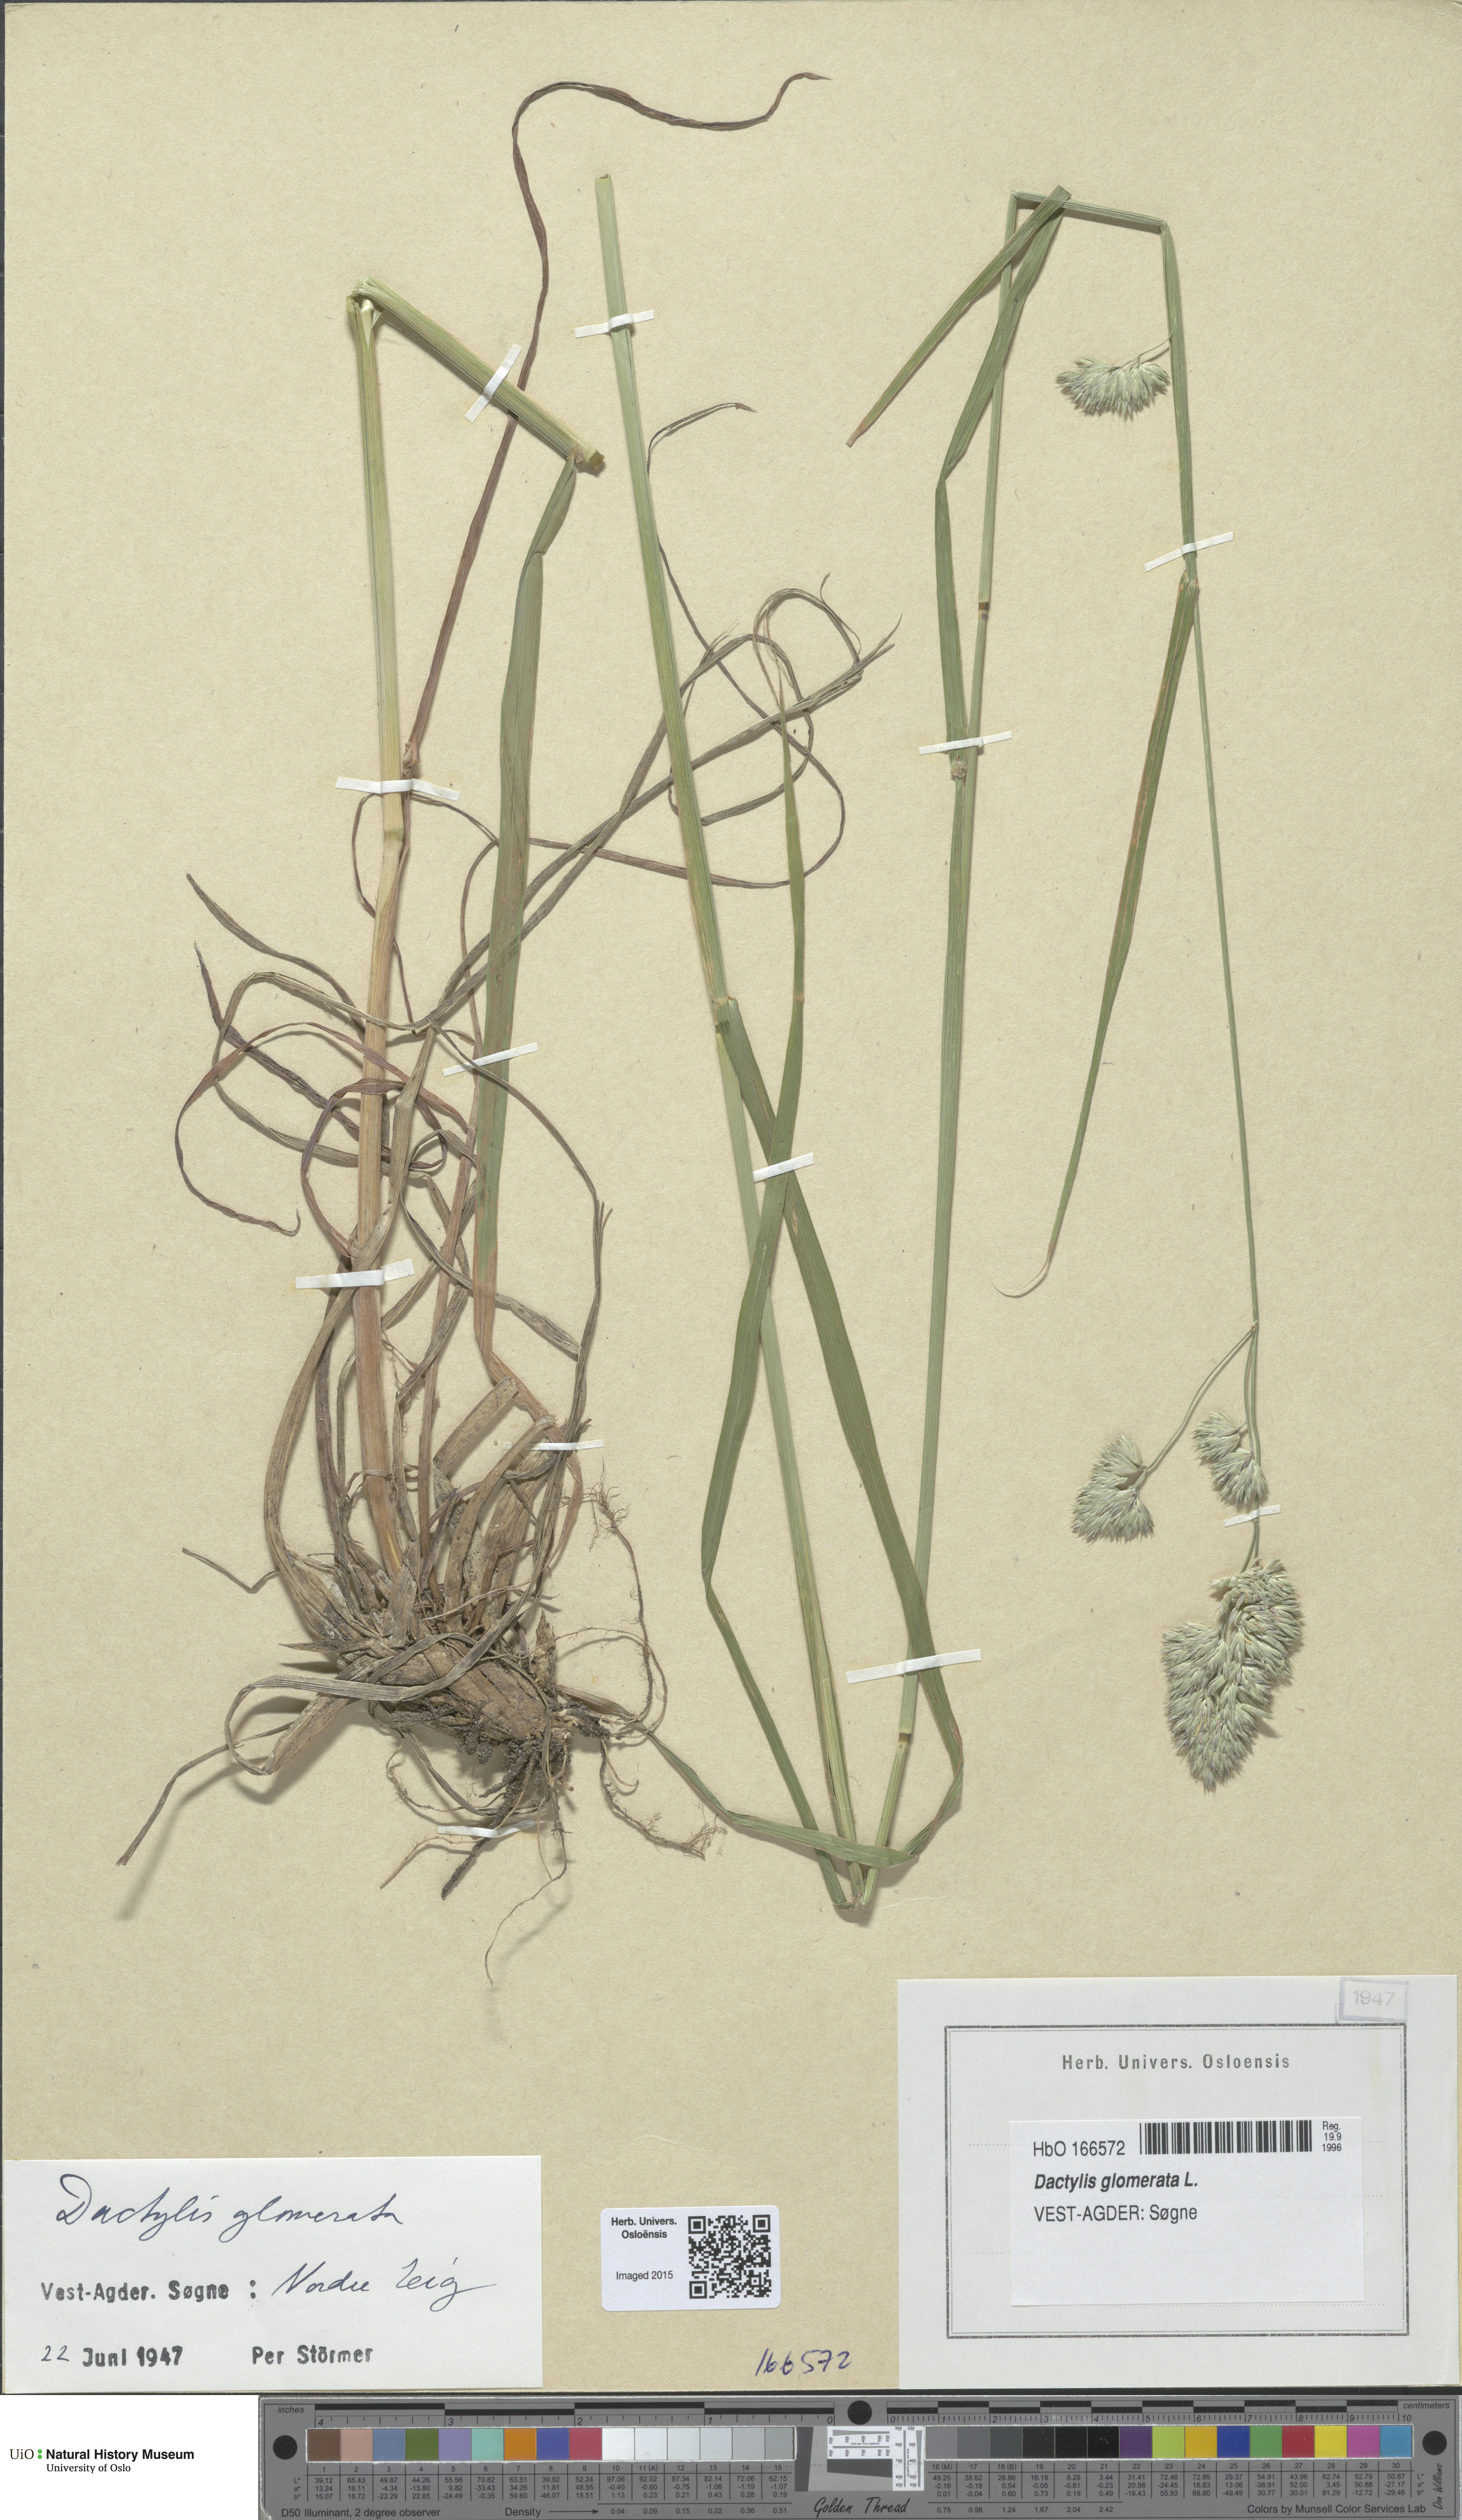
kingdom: Plantae
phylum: Tracheophyta
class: Liliopsida
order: Poales
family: Poaceae
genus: Dactylis
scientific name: Dactylis glomerata
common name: Orchardgrass
